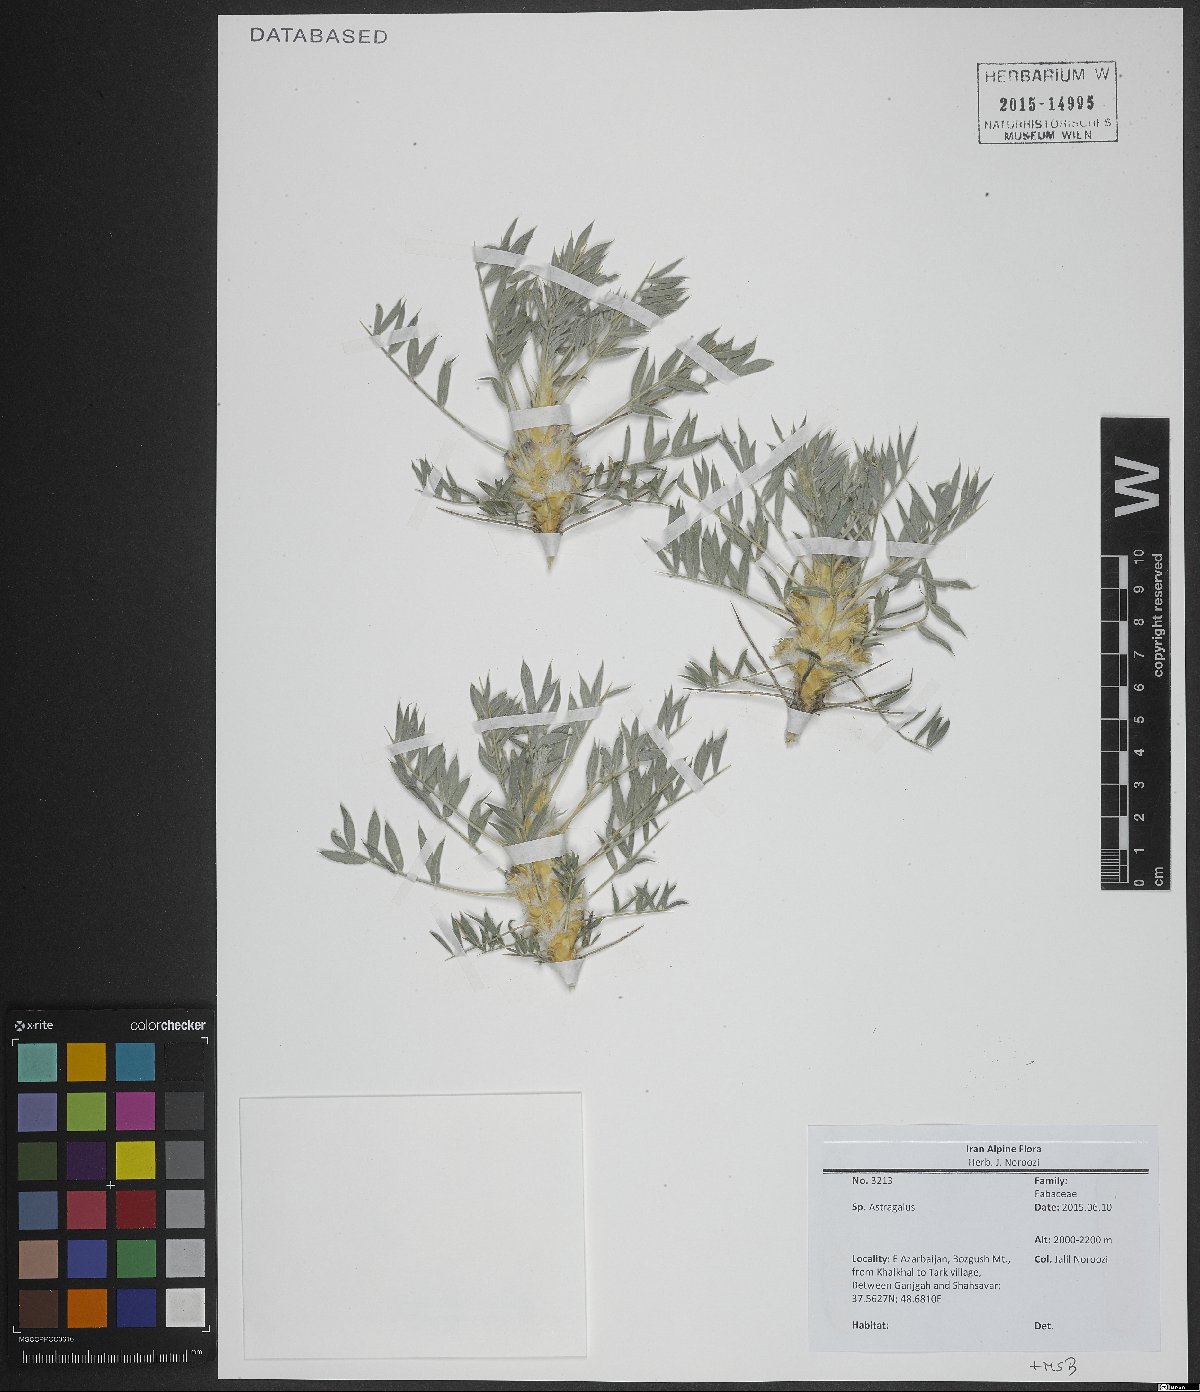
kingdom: Plantae
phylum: Tracheophyta
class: Magnoliopsida
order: Fabales
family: Fabaceae
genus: Astragalus
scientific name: Astragalus
